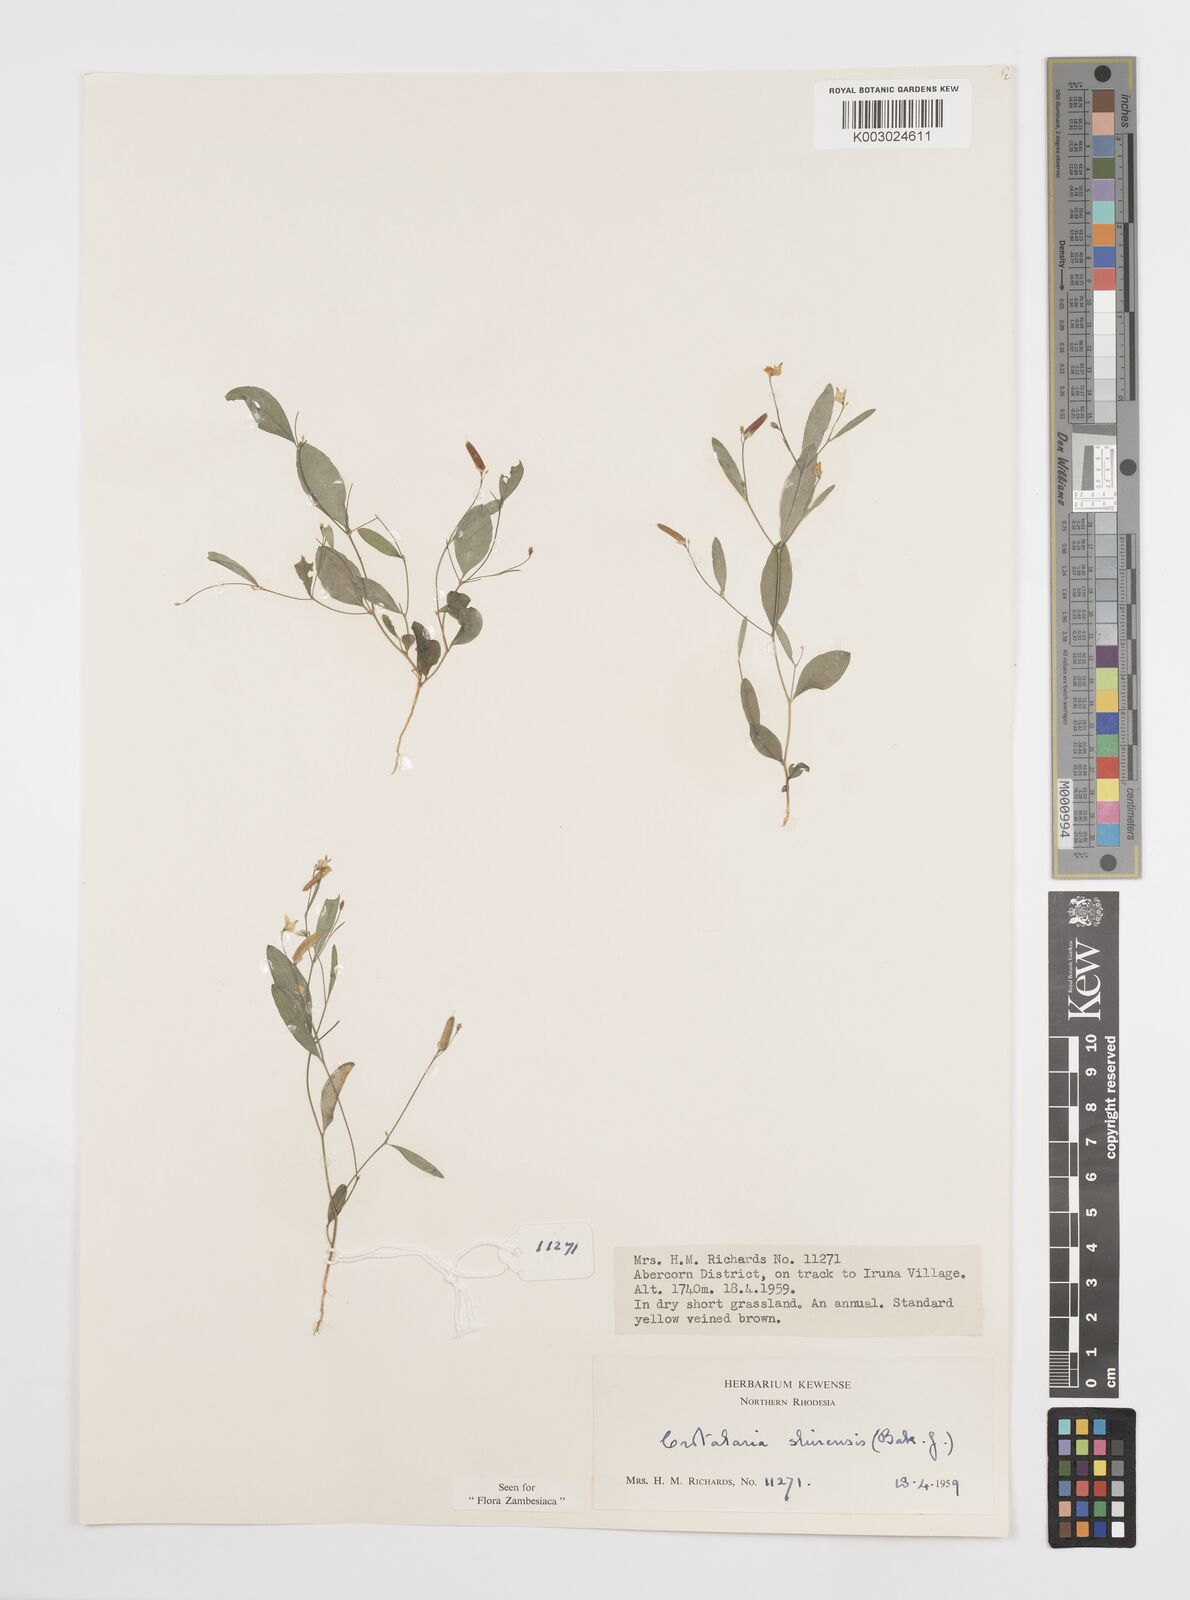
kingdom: Plantae
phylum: Tracheophyta
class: Magnoliopsida
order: Fabales
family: Fabaceae
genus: Crotalaria
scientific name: Crotalaria shirensis
